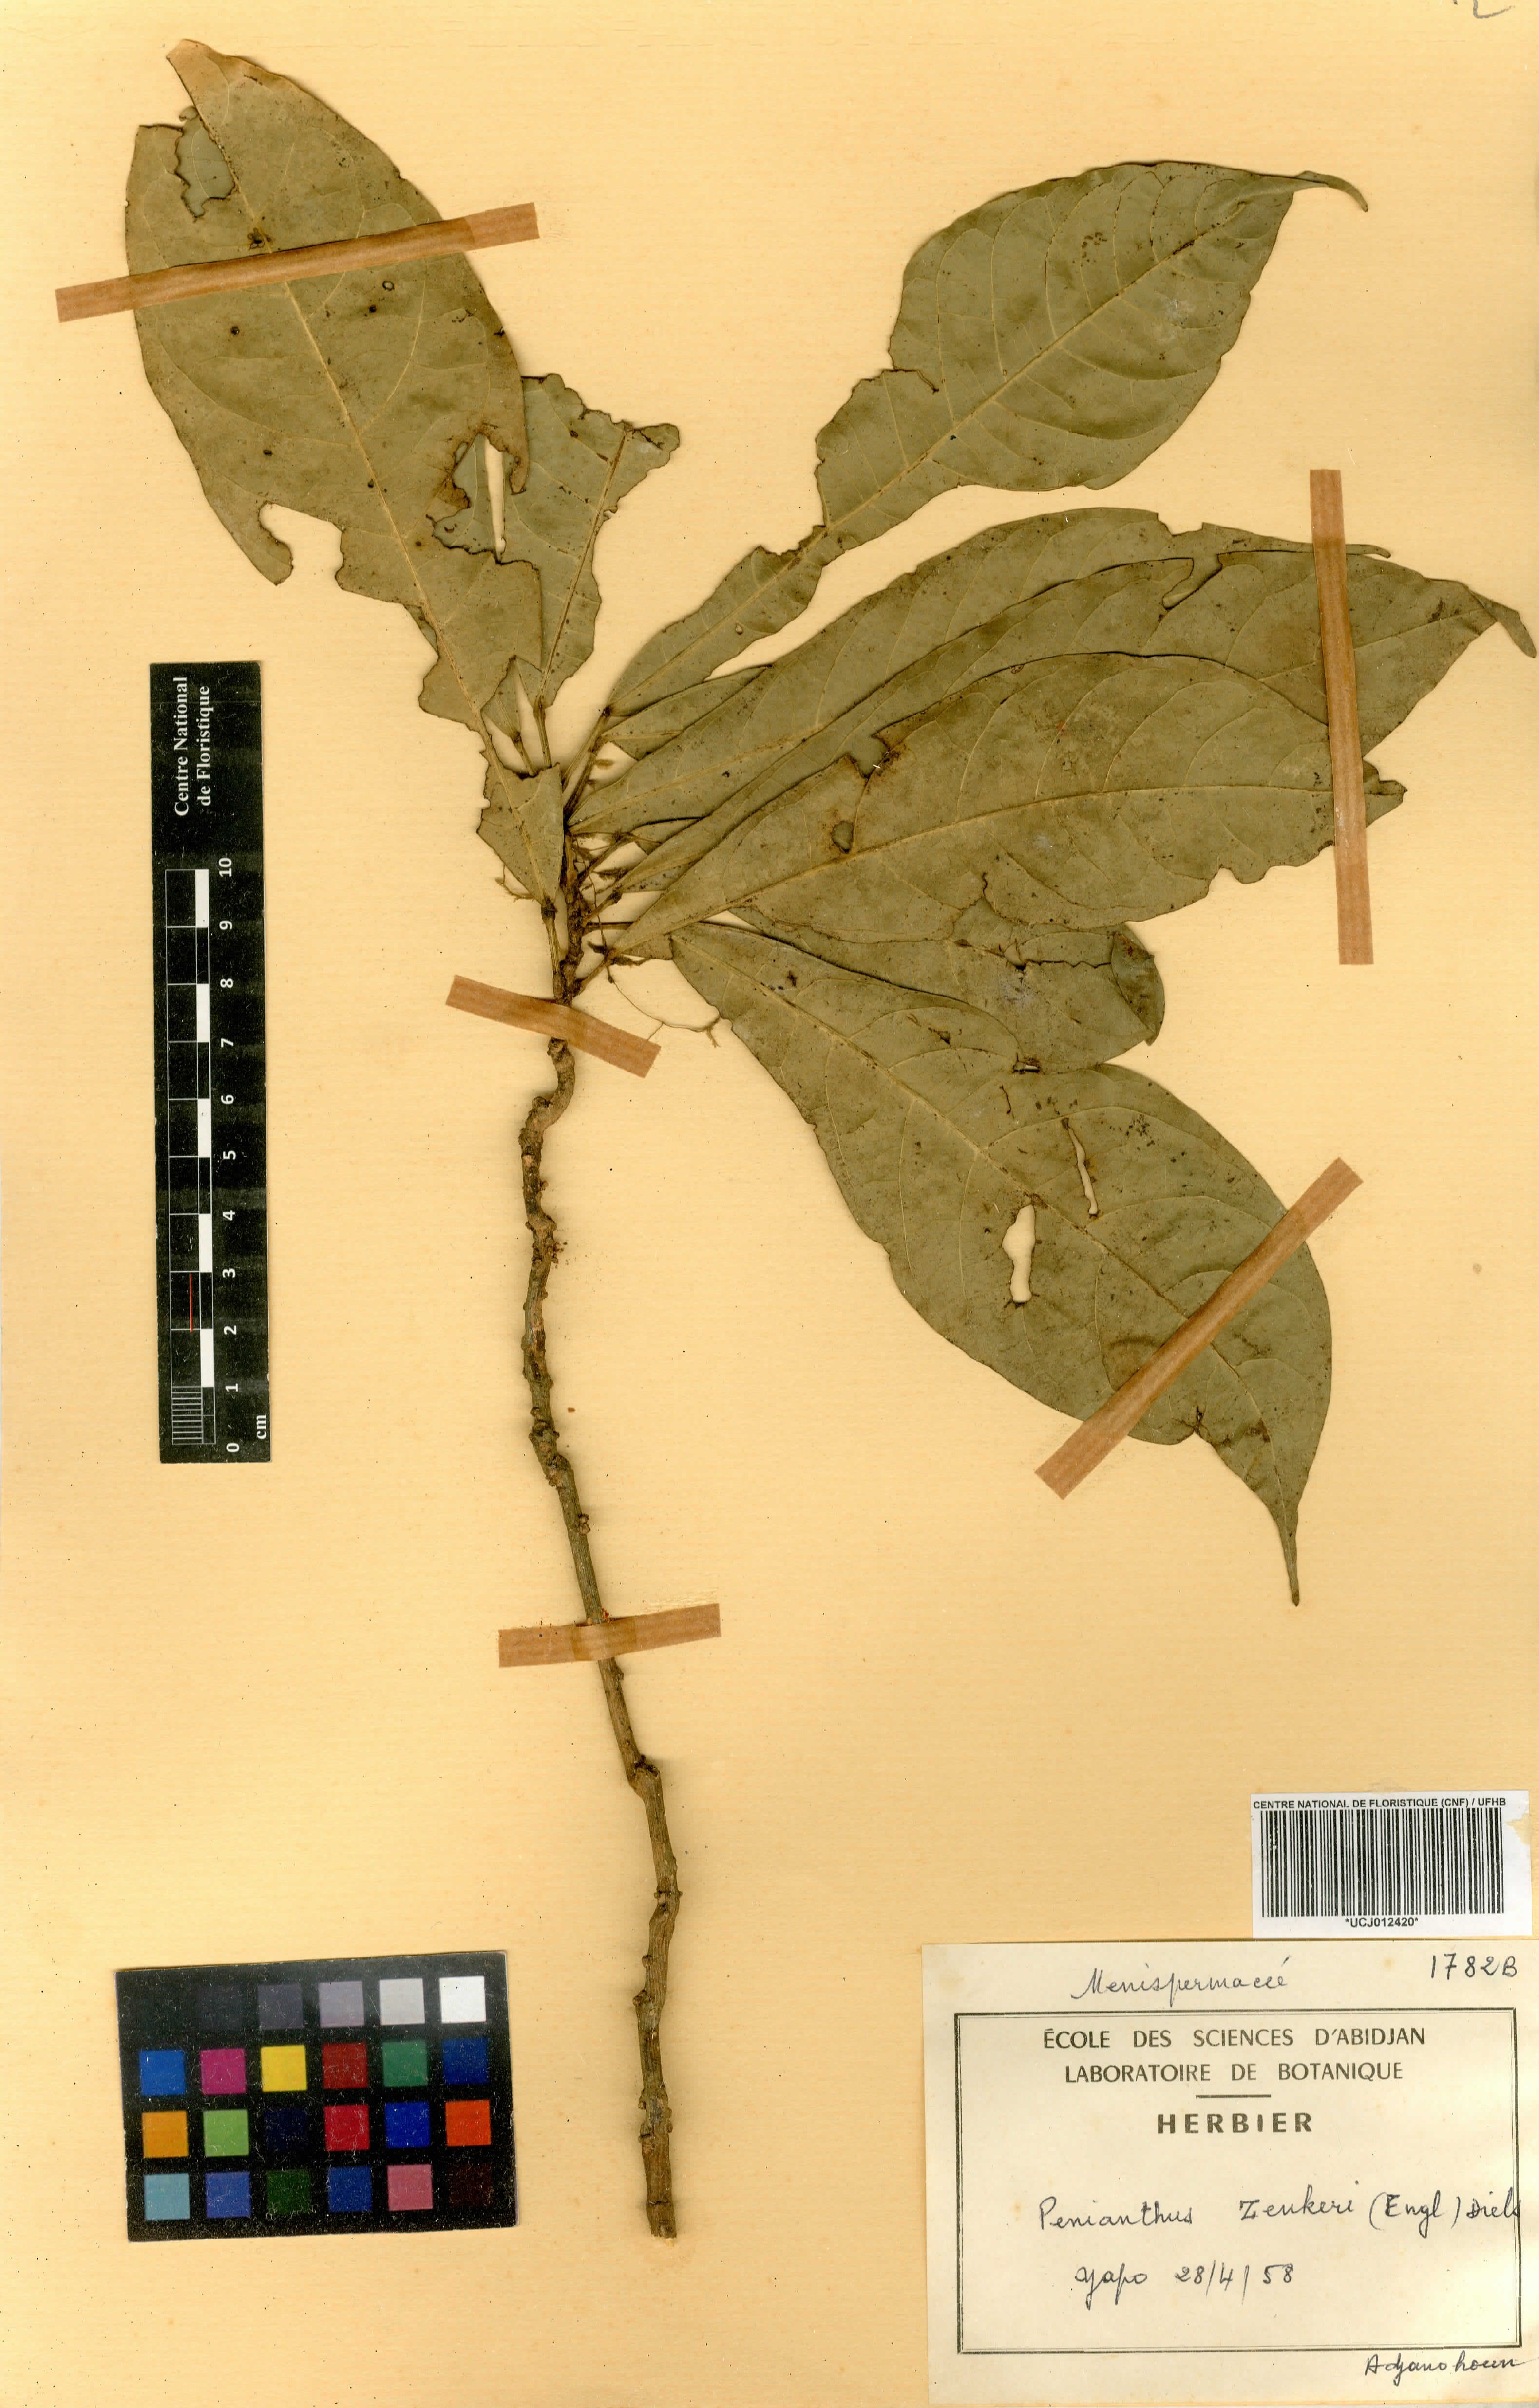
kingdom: Plantae
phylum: Tracheophyta
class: Magnoliopsida
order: Ranunculales
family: Menispermaceae
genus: Penianthus
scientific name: Penianthus zenkeri
